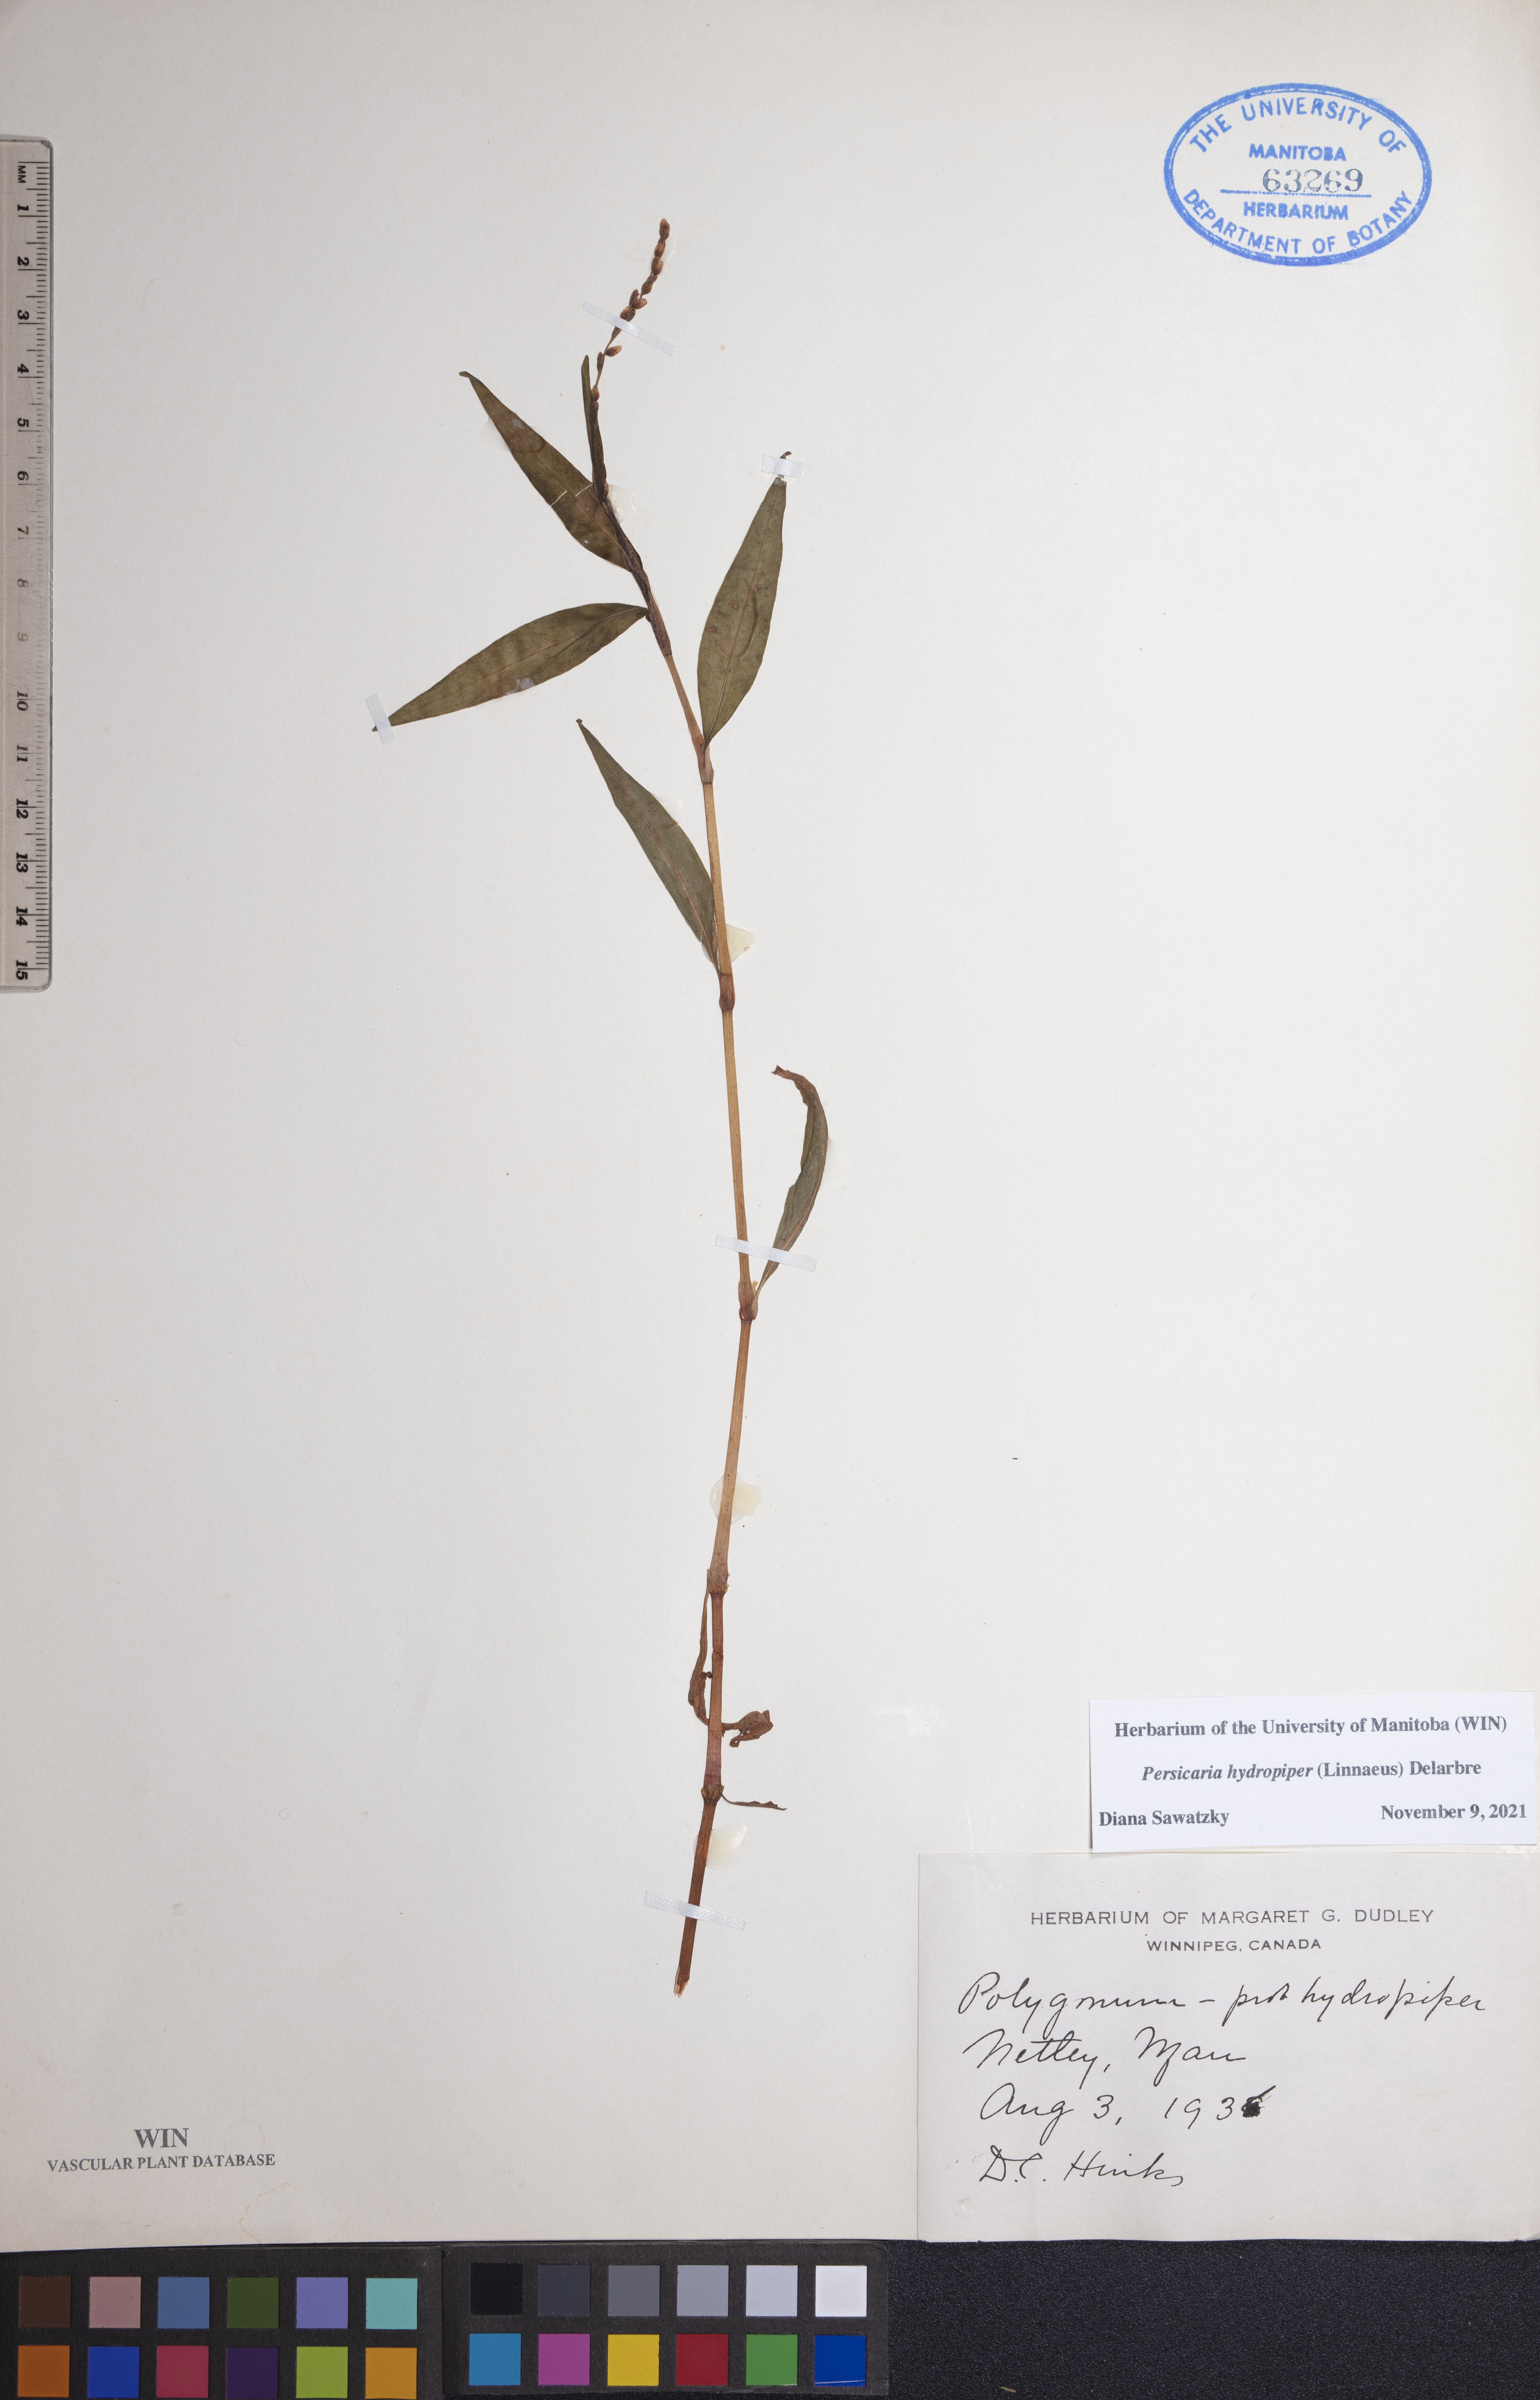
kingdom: Plantae
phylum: Tracheophyta
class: Magnoliopsida
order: Caryophyllales
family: Polygonaceae
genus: Persicaria
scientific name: Persicaria hydropiper
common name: Water-pepper
